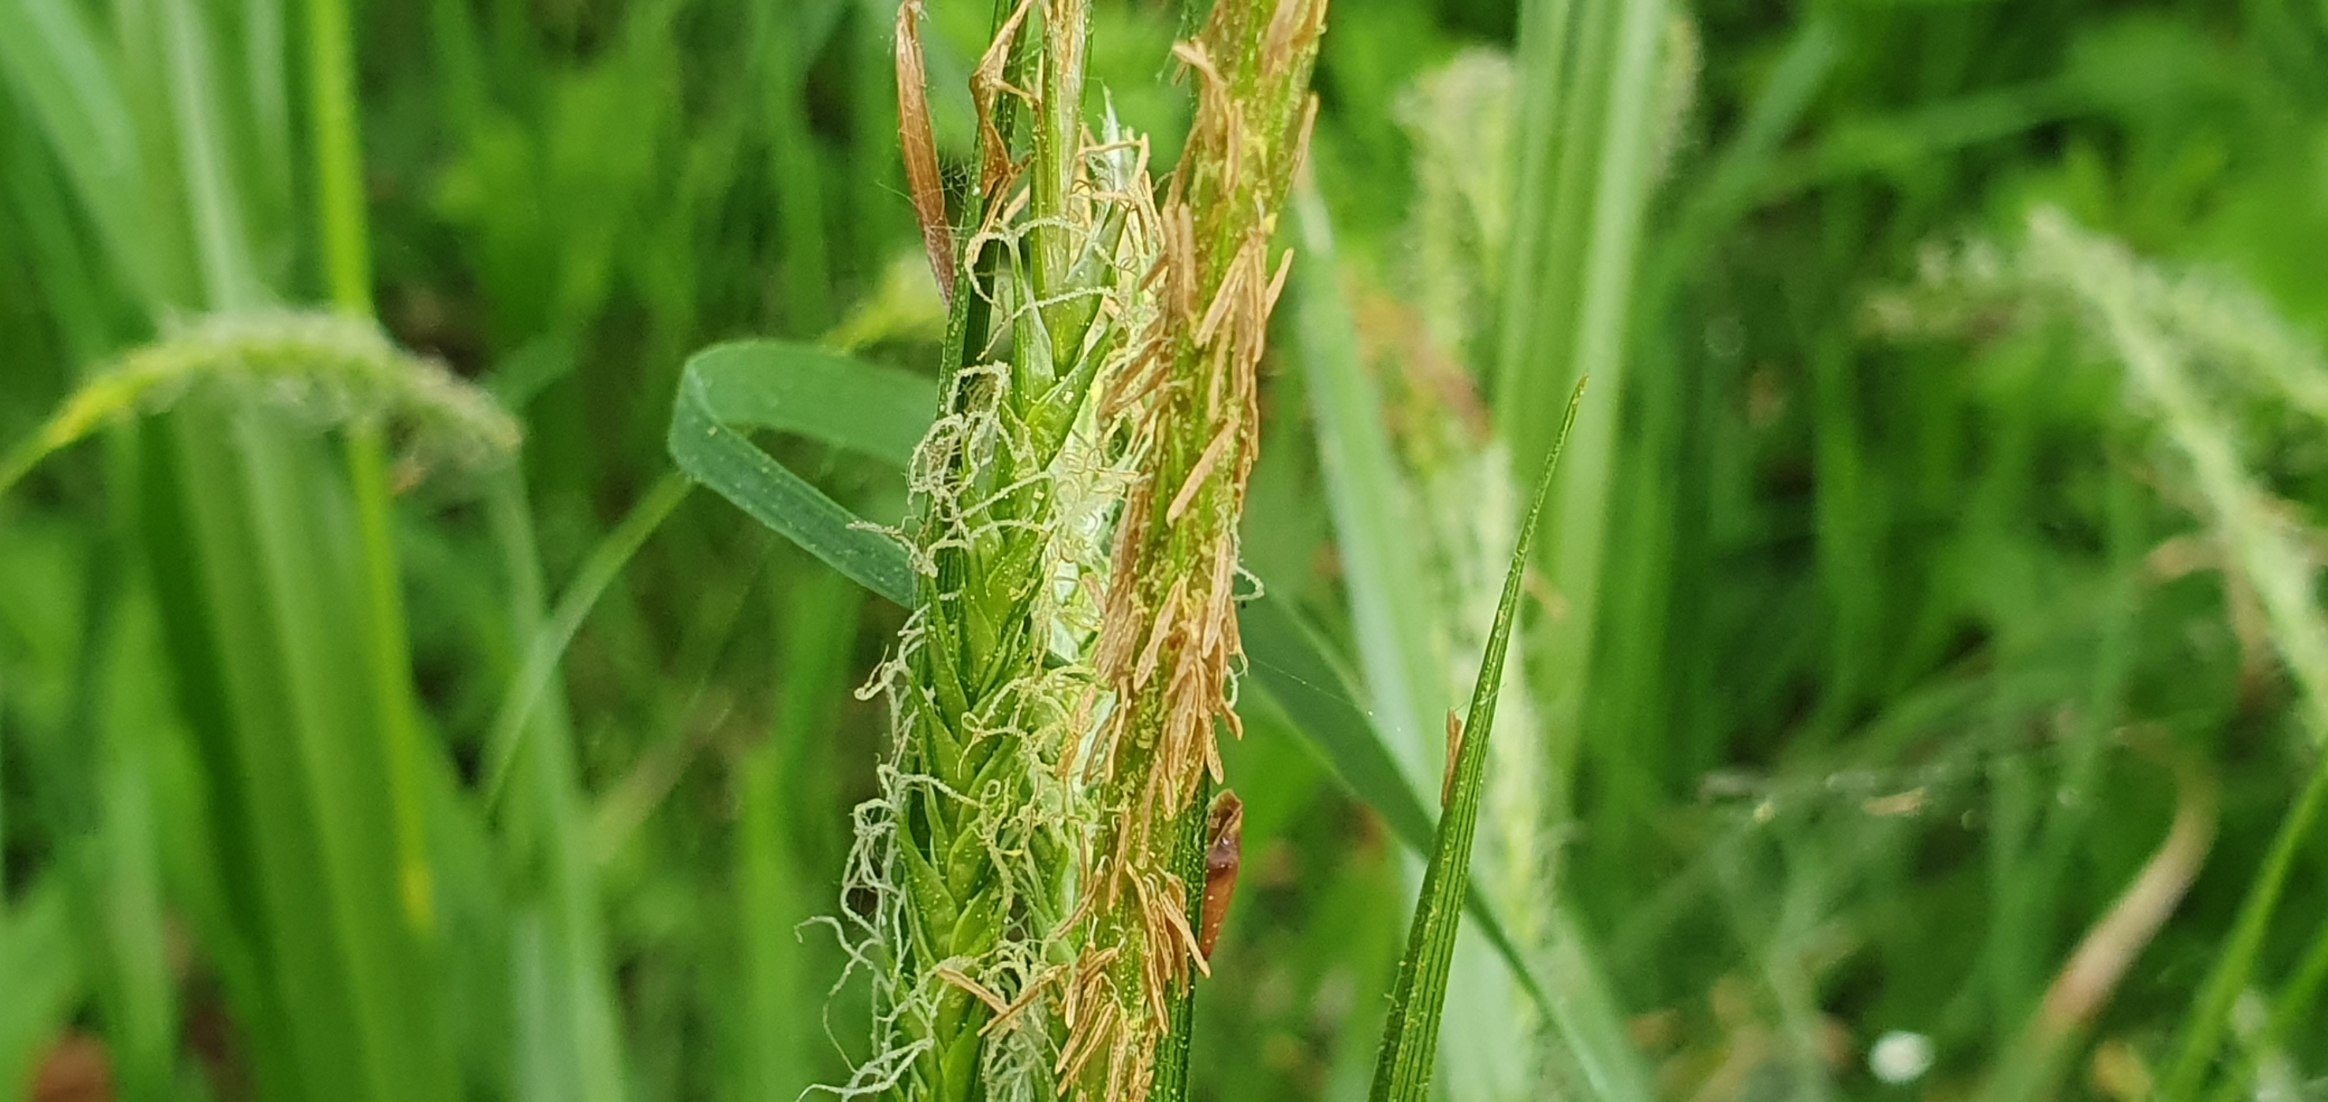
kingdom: Plantae
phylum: Tracheophyta
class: Liliopsida
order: Poales
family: Cyperaceae
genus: Carex
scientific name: Carex sylvatica
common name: Skov-star
